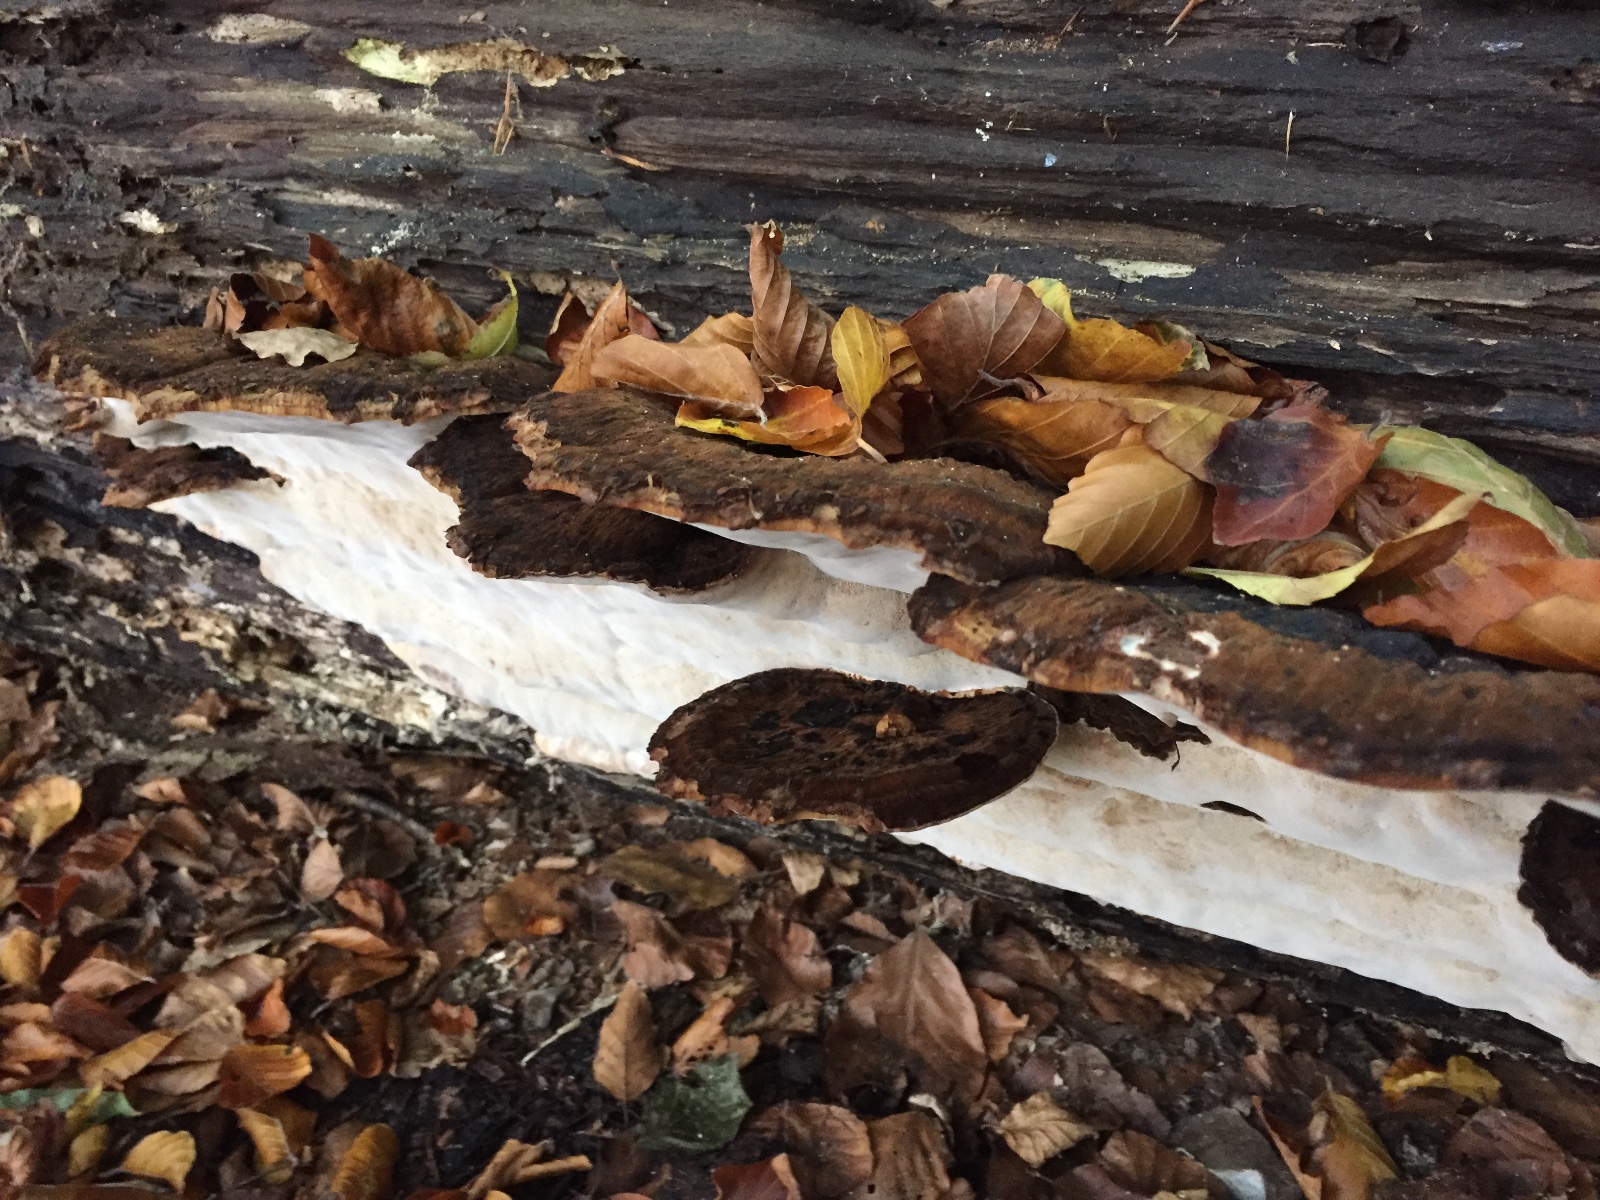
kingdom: Fungi
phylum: Basidiomycota
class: Agaricomycetes
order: Polyporales
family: Ischnodermataceae
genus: Ischnoderma
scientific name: Ischnoderma resinosum
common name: løv-tjæreporesvamp
